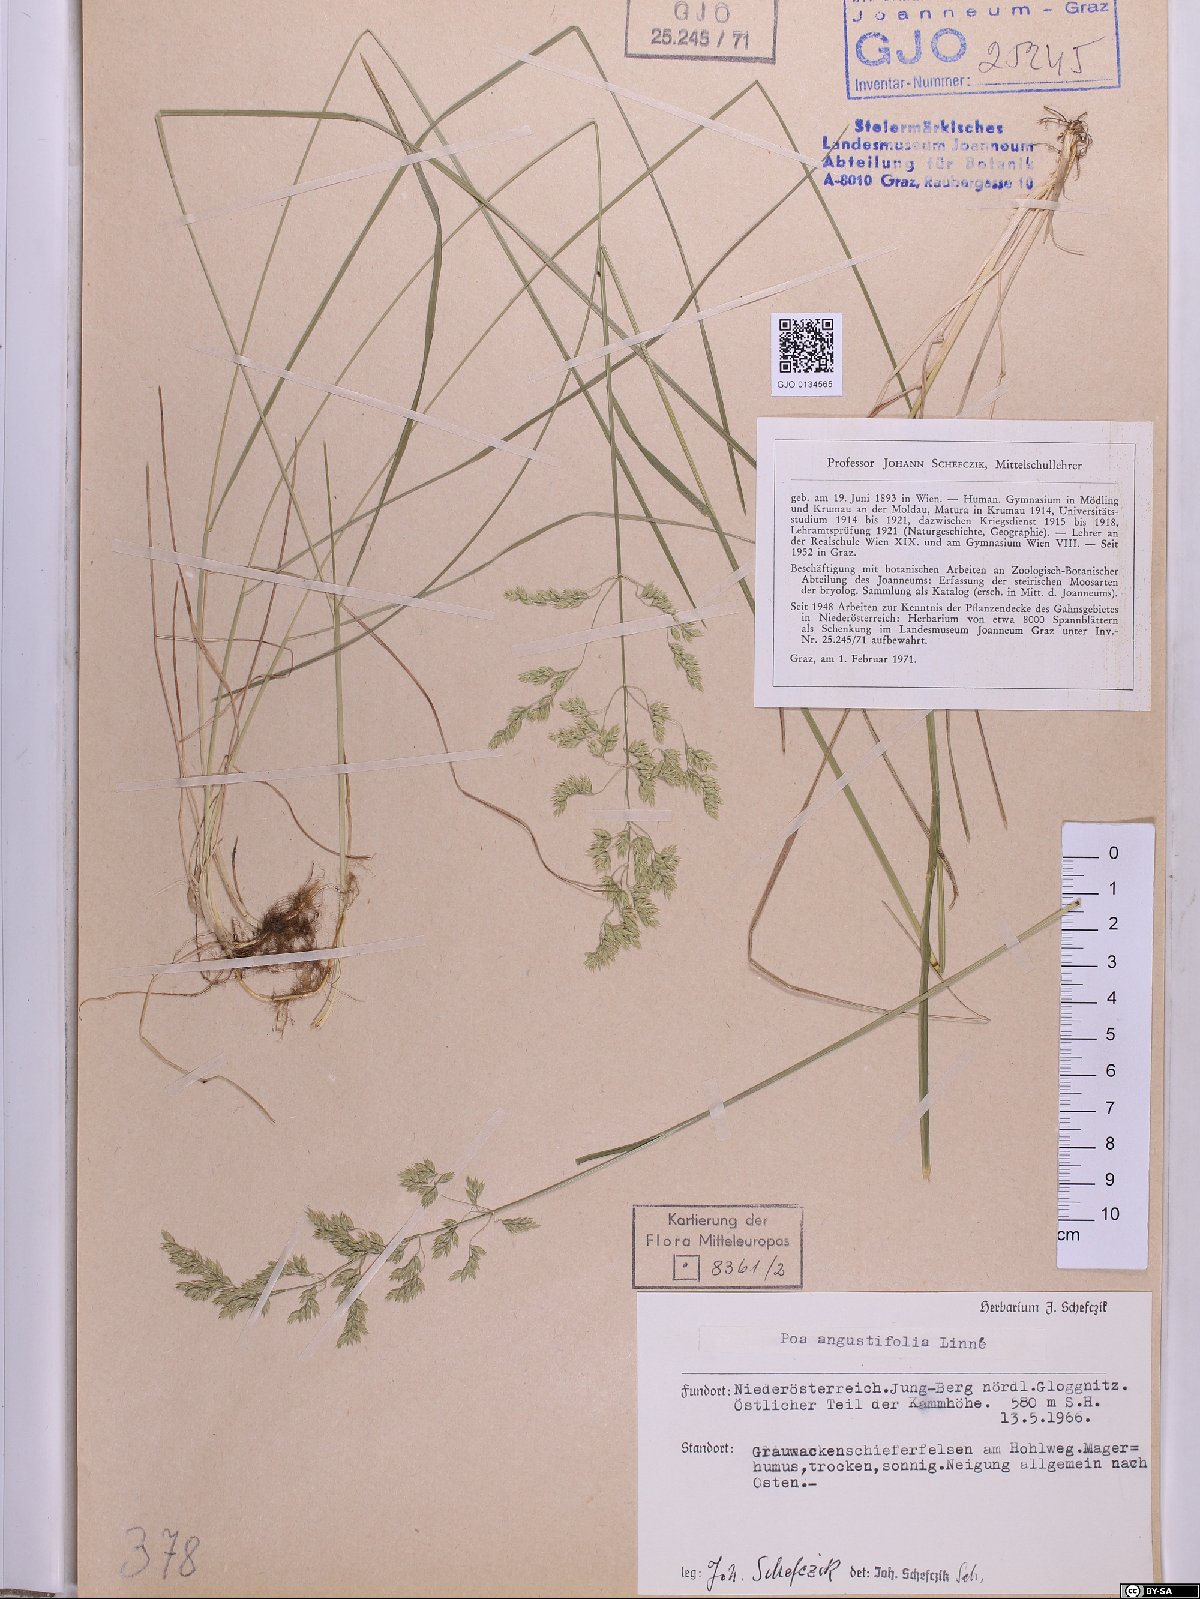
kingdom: Plantae
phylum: Tracheophyta
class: Liliopsida
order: Poales
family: Poaceae
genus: Poa
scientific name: Poa angustifolia
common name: Narrow-leaved meadow-grass
